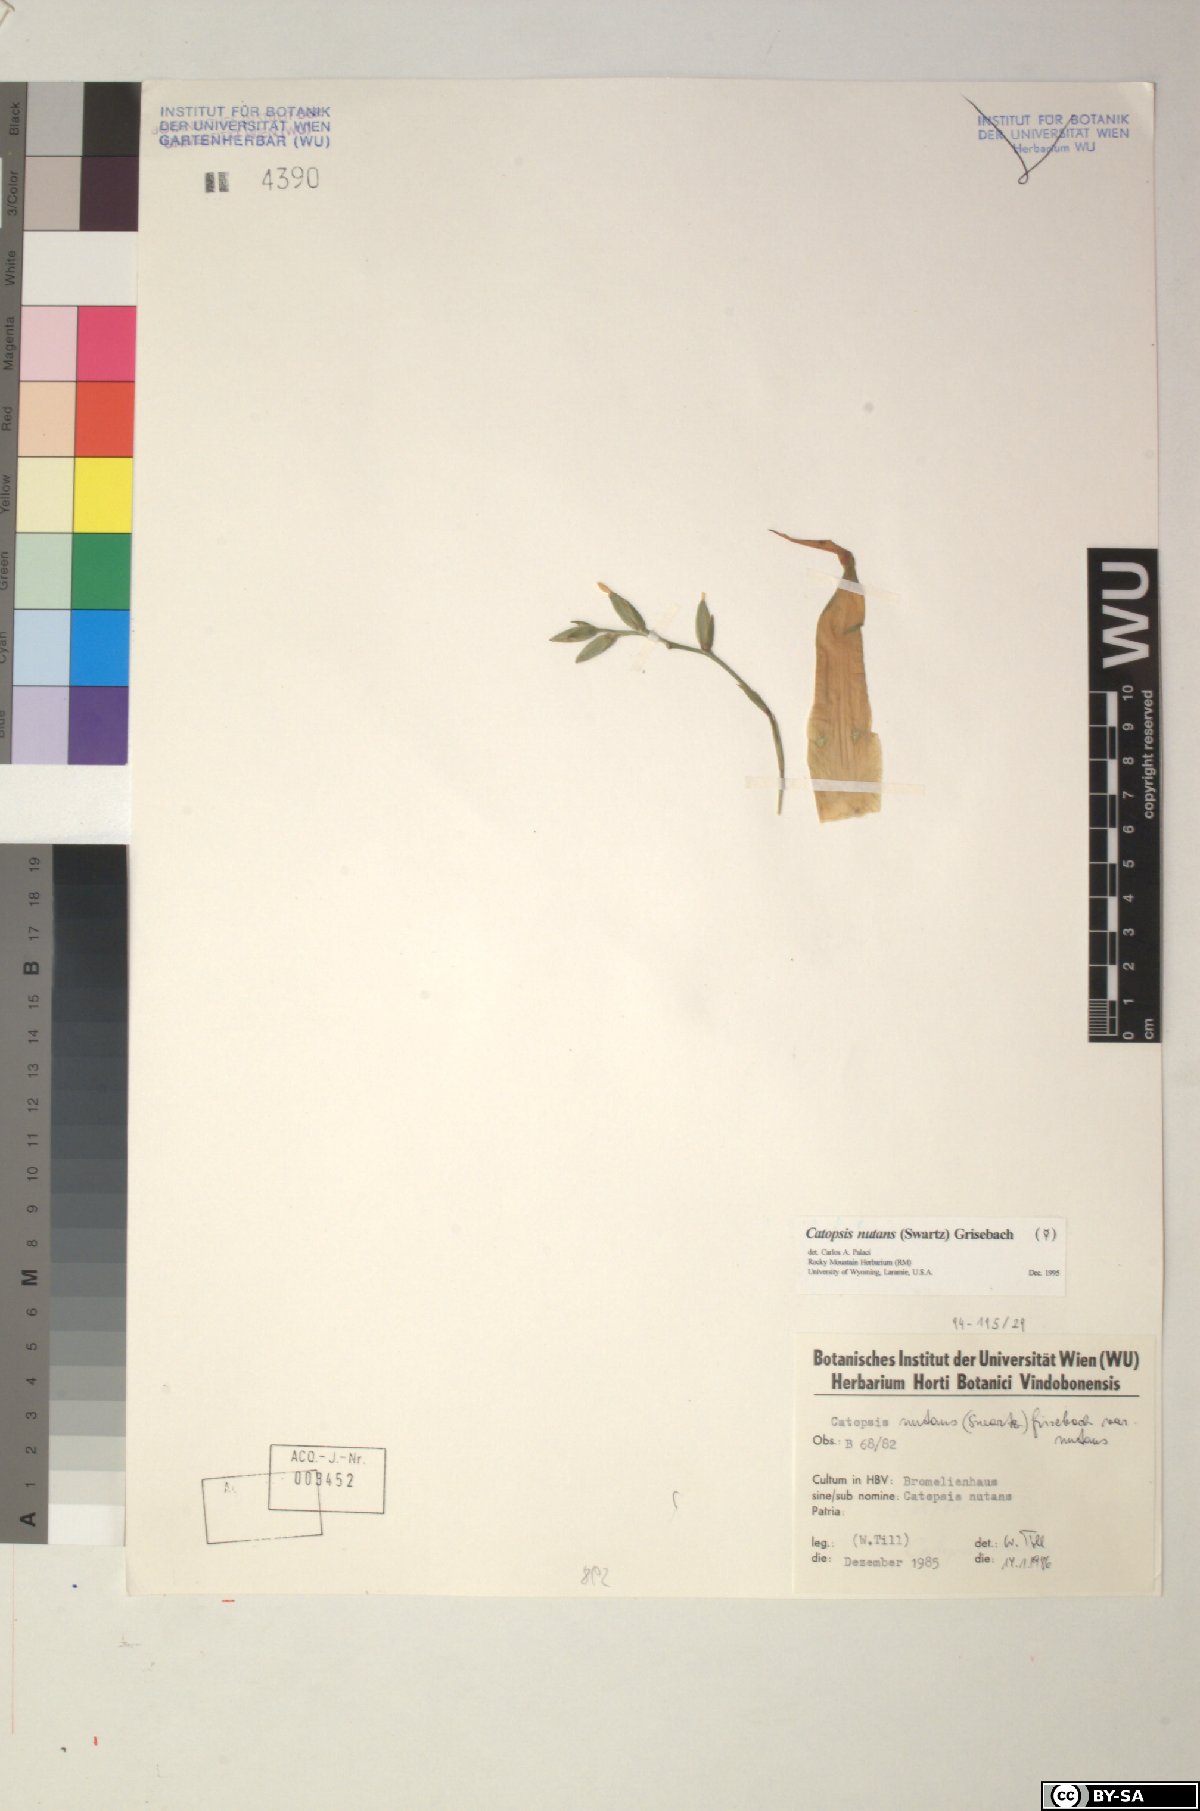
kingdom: Plantae
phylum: Tracheophyta
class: Liliopsida
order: Poales
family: Bromeliaceae
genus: Catopsis
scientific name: Catopsis nutans
